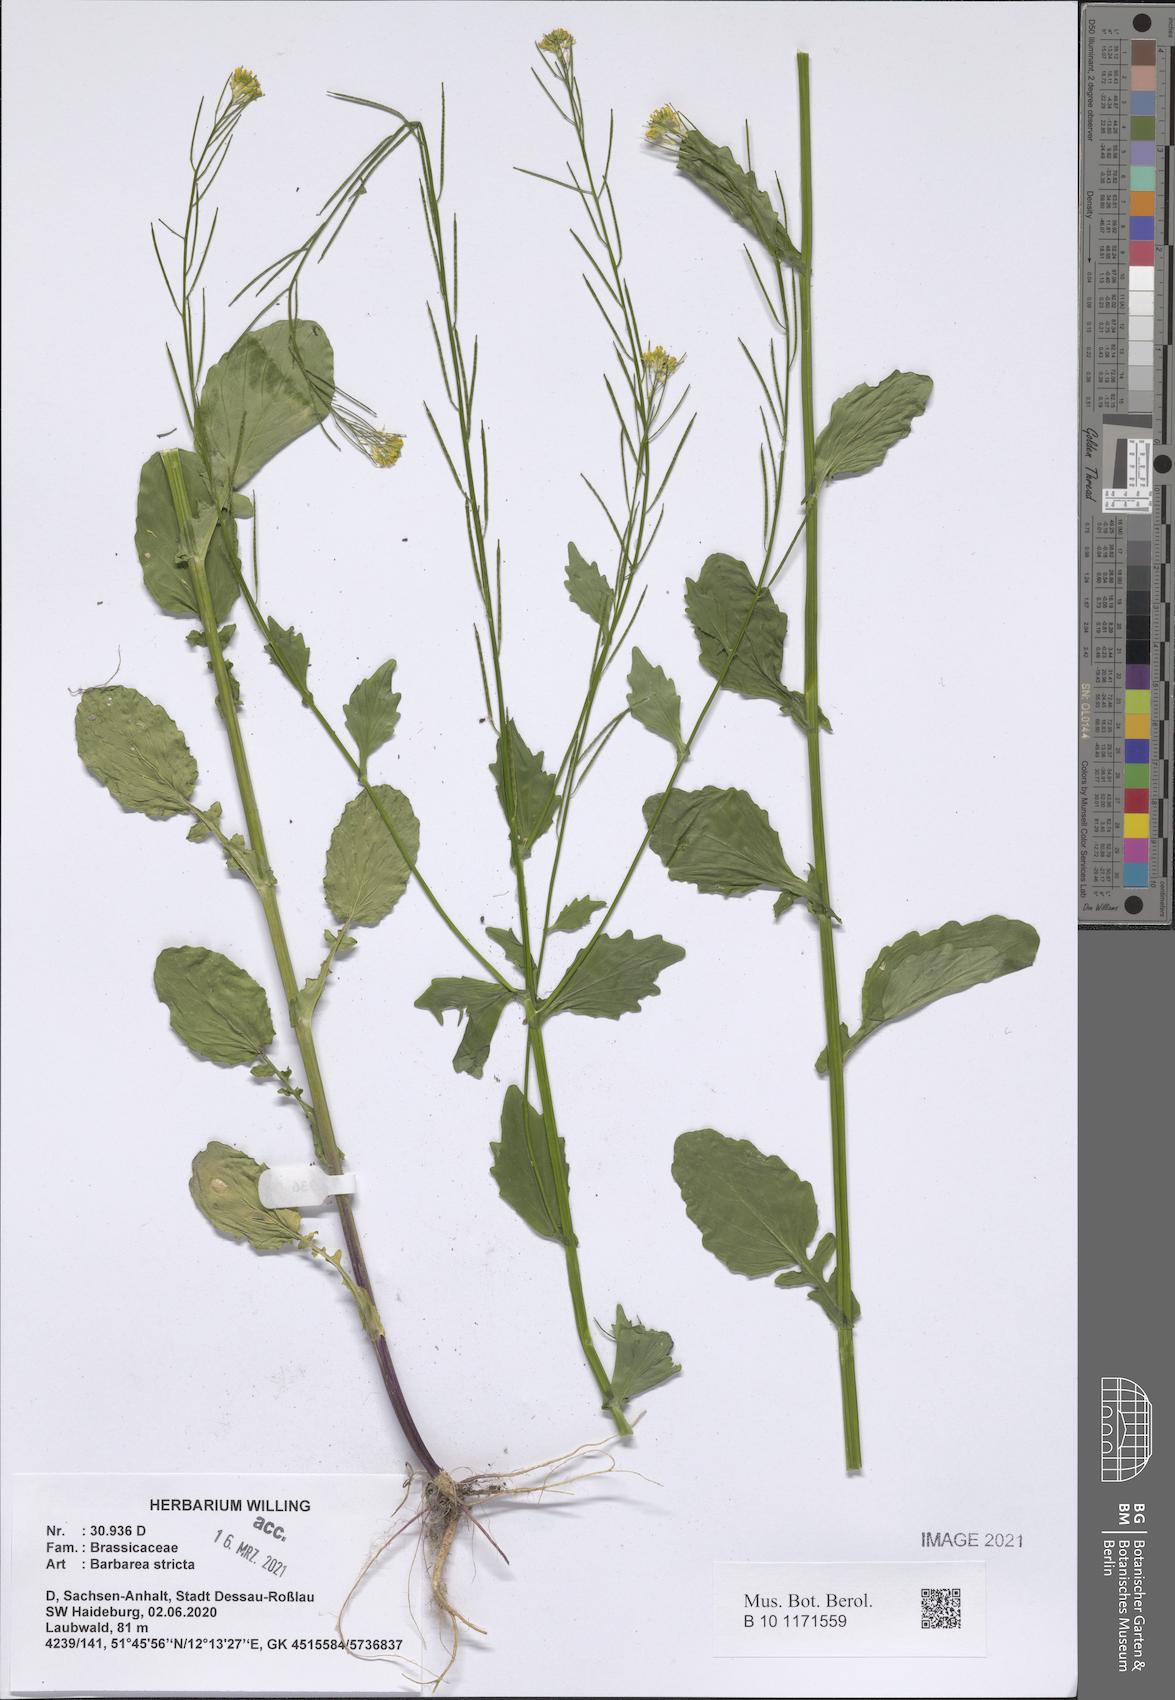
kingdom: Plantae
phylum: Tracheophyta
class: Magnoliopsida
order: Brassicales
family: Brassicaceae
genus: Barbarea
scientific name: Barbarea stricta
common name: Small-flowered winter-cress
